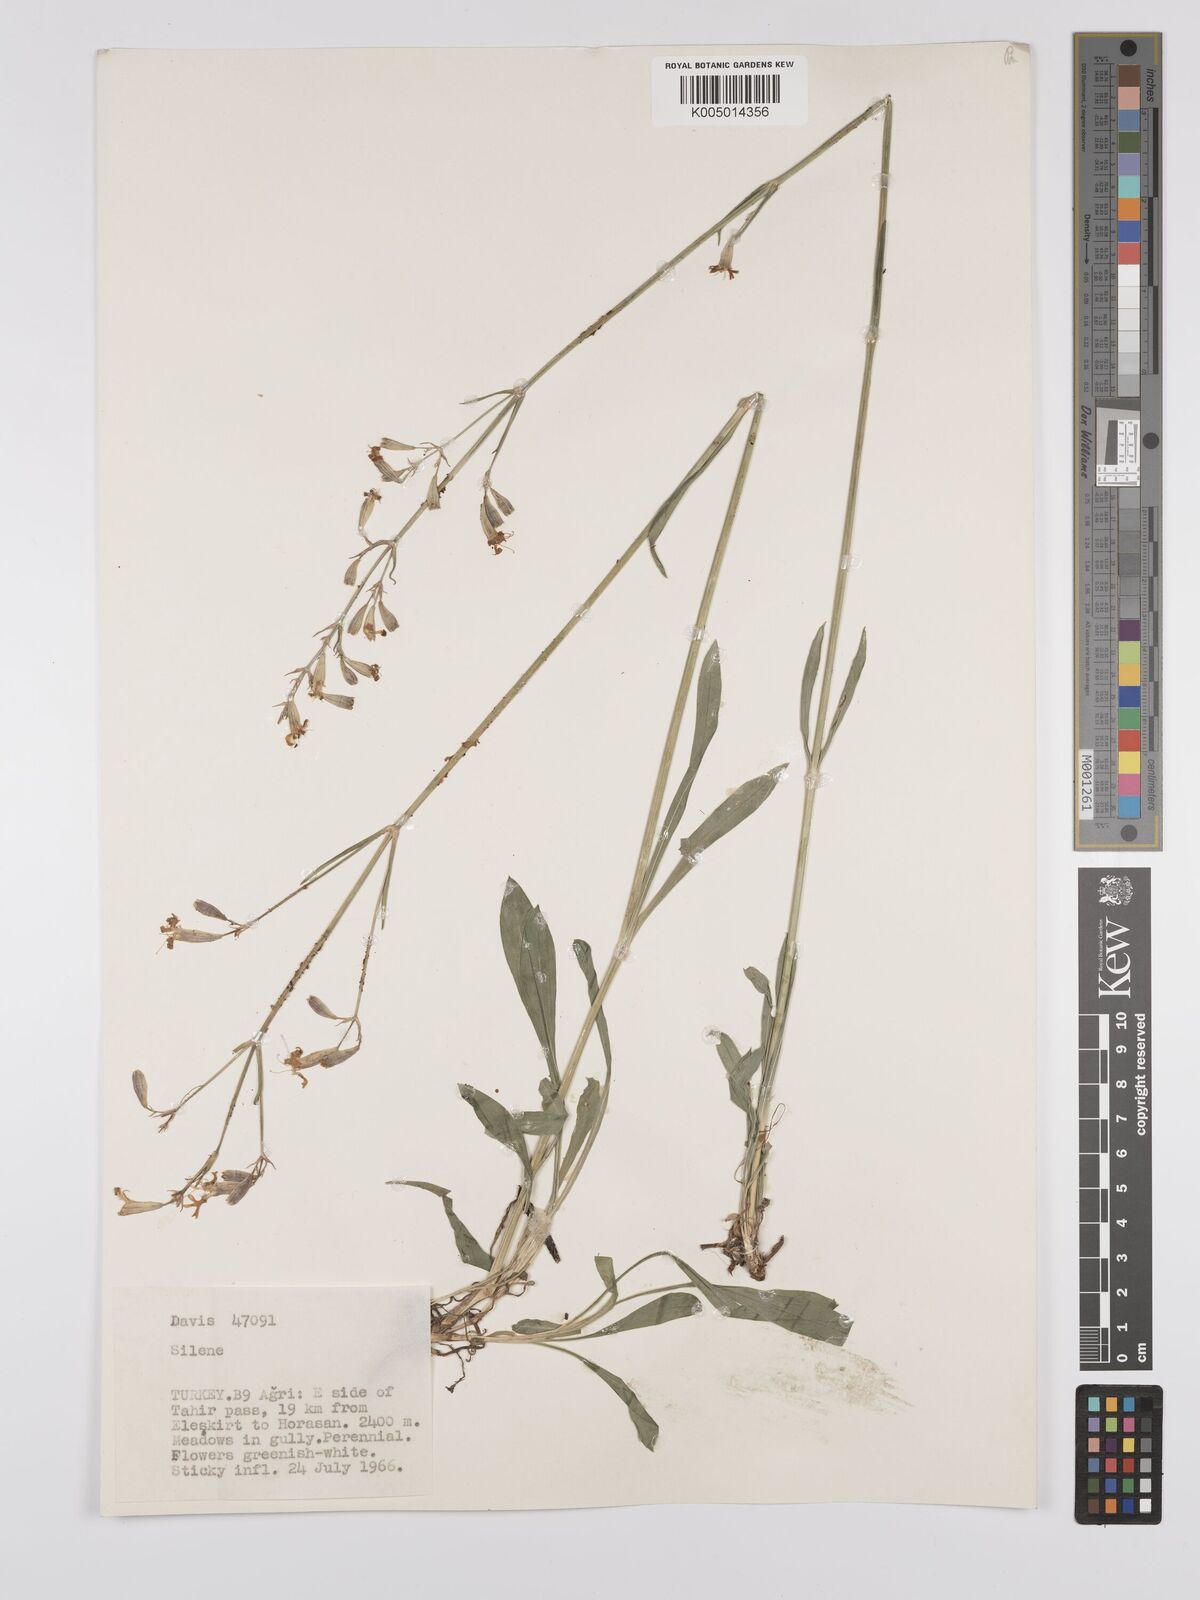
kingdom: Plantae
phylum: Tracheophyta
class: Magnoliopsida
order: Caryophyllales
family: Caryophyllaceae
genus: Silene
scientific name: Silene
